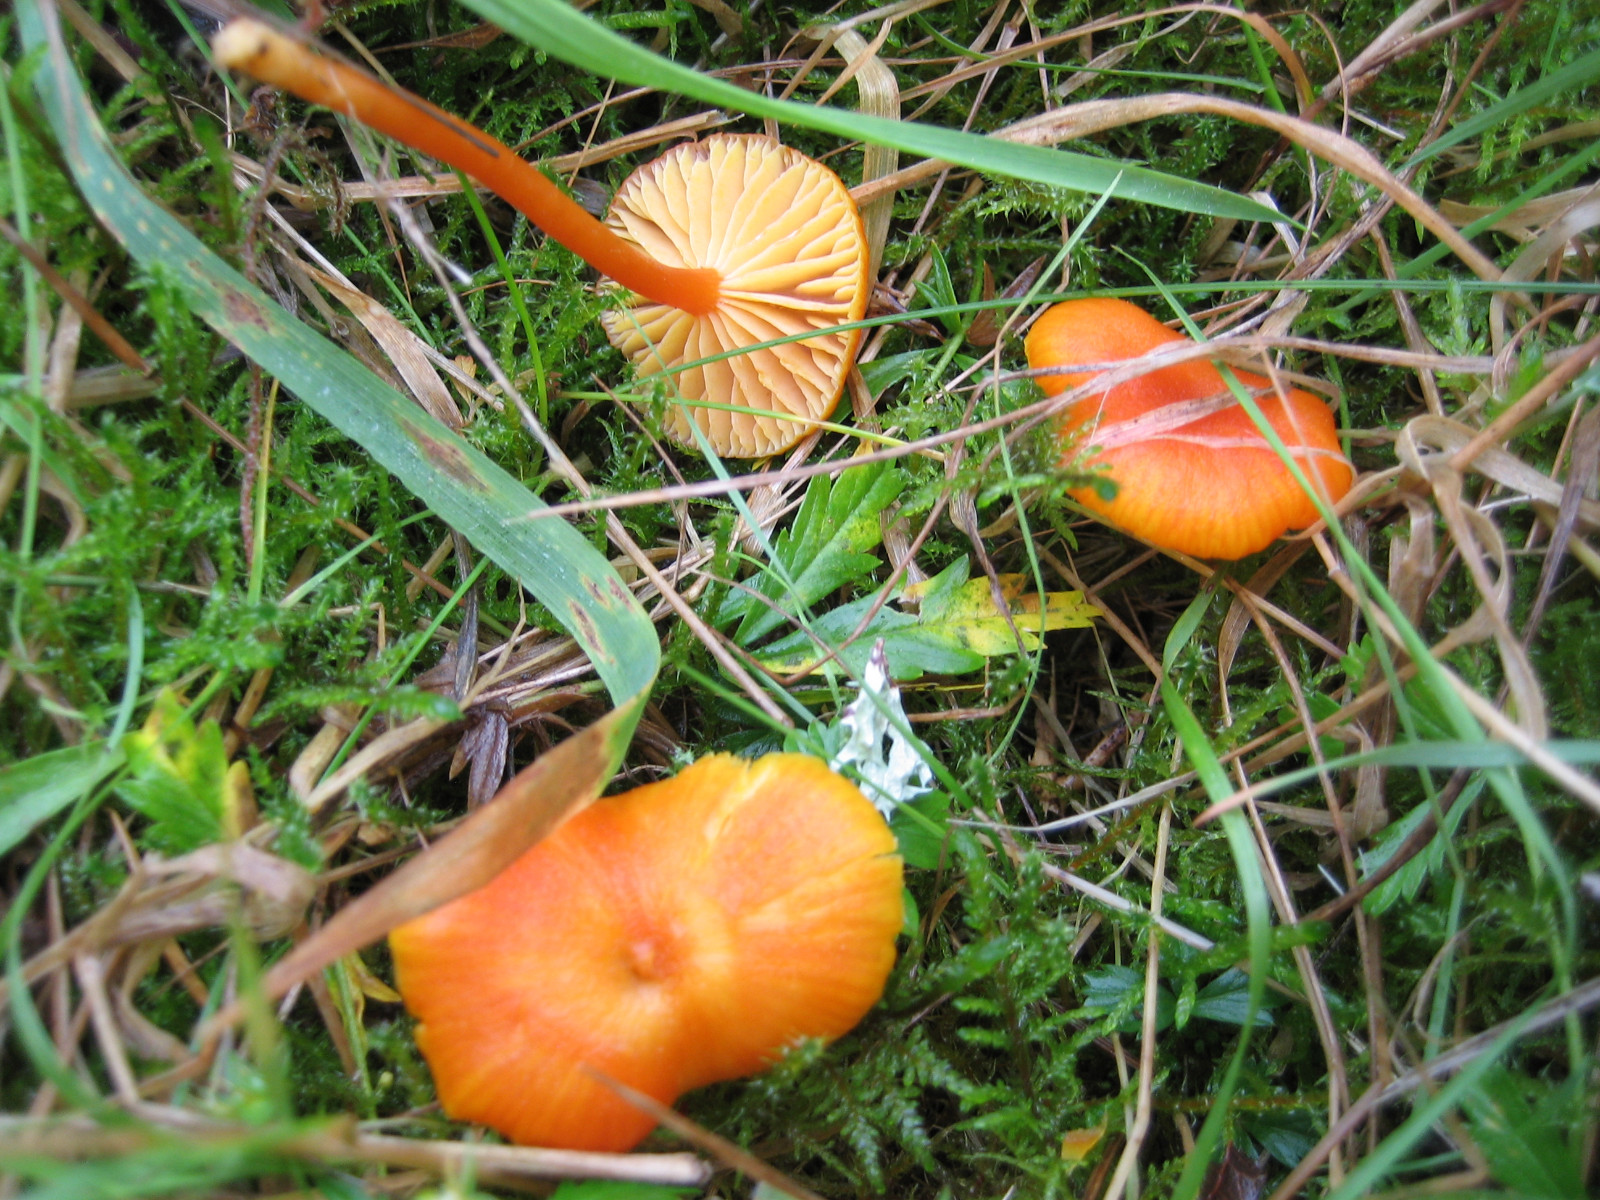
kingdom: Fungi
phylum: Basidiomycota
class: Agaricomycetes
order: Agaricales
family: Hygrophoraceae
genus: Hygrocybe
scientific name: Hygrocybe miniata
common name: mønje-vokshat
